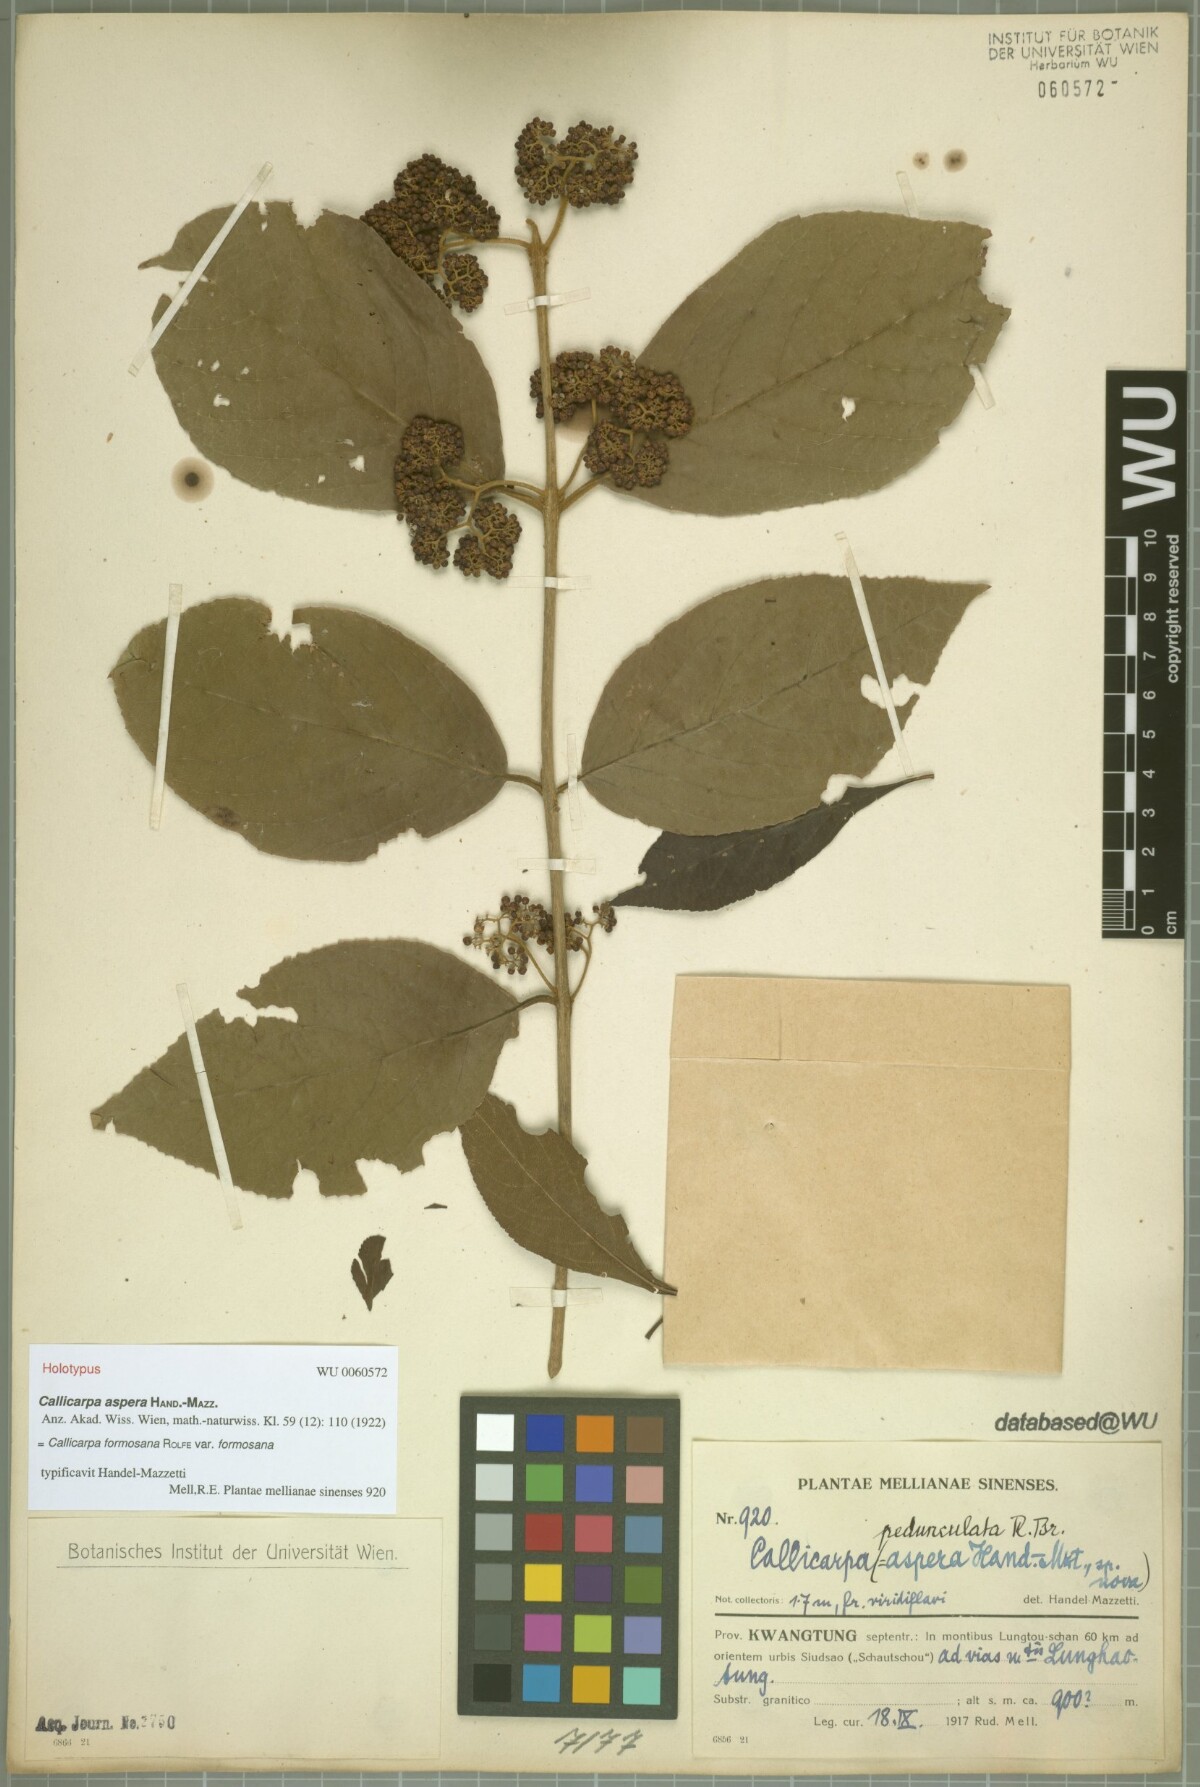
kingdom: Plantae
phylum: Tracheophyta
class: Magnoliopsida
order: Lamiales
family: Lamiaceae
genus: Callicarpa
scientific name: Callicarpa pedunculata
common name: Velvetleaf
